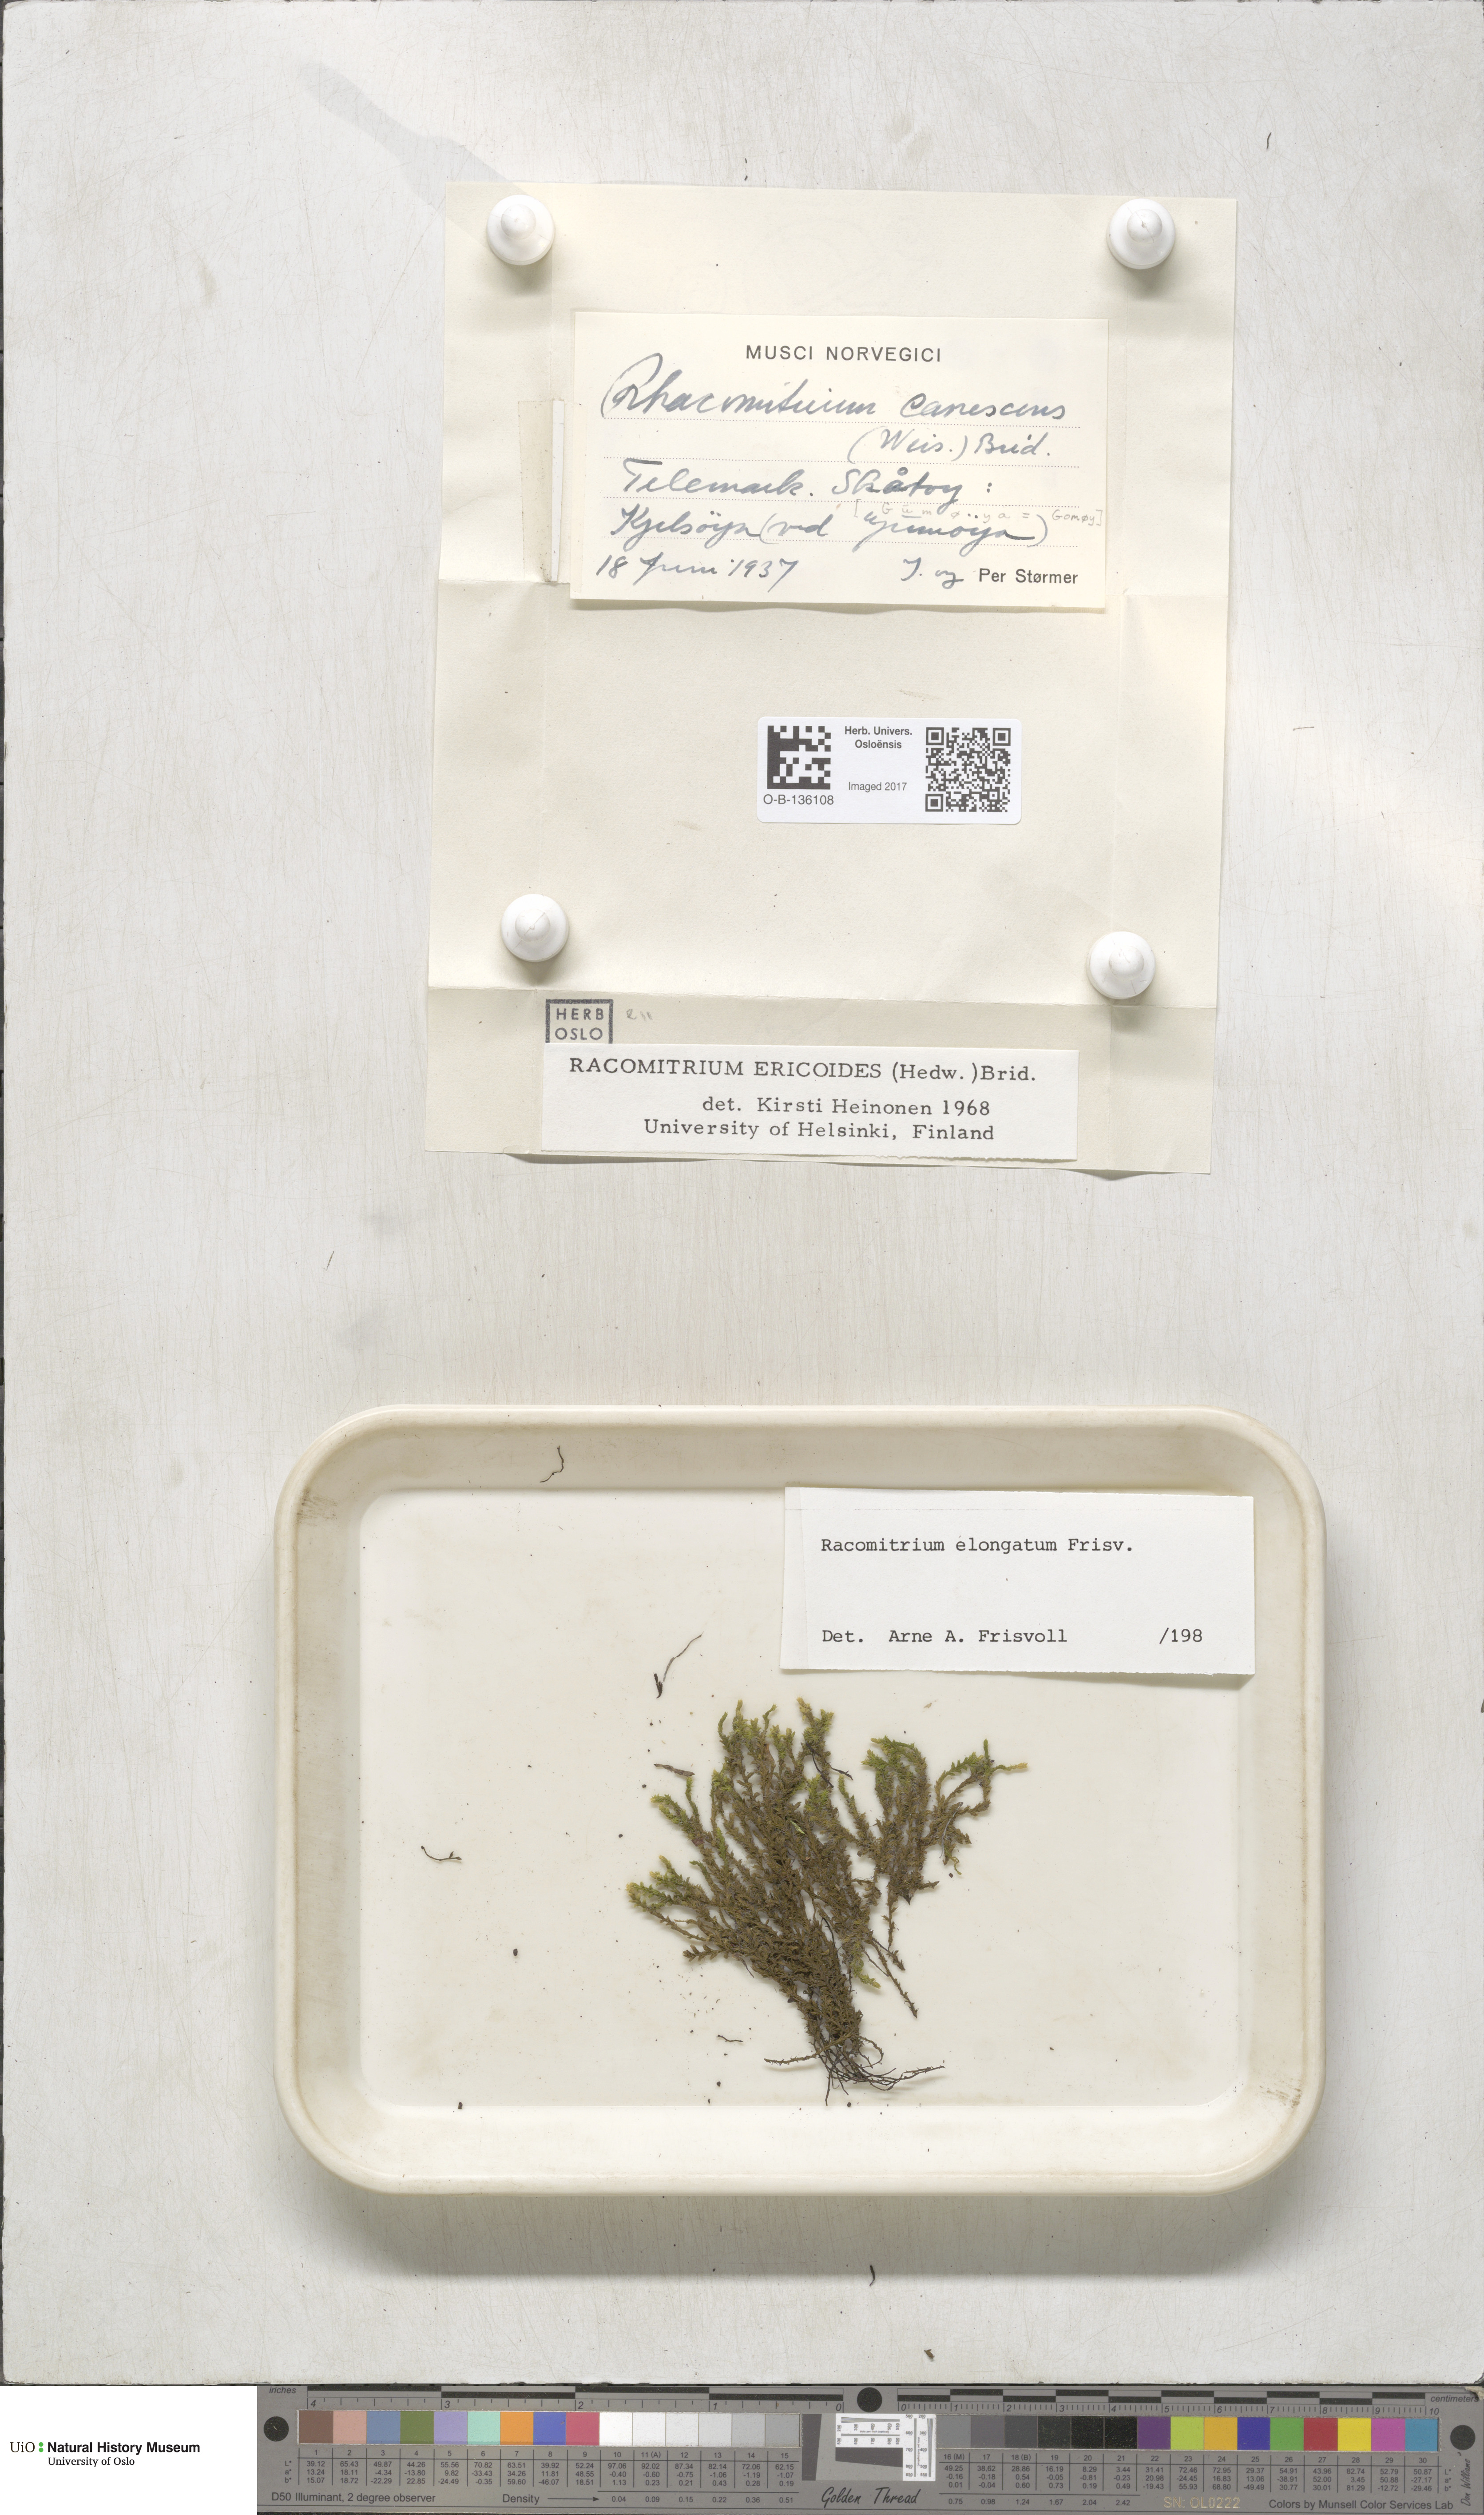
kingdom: Plantae
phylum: Bryophyta
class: Bryopsida
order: Grimmiales
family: Grimmiaceae
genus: Niphotrichum
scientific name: Niphotrichum elongatum
